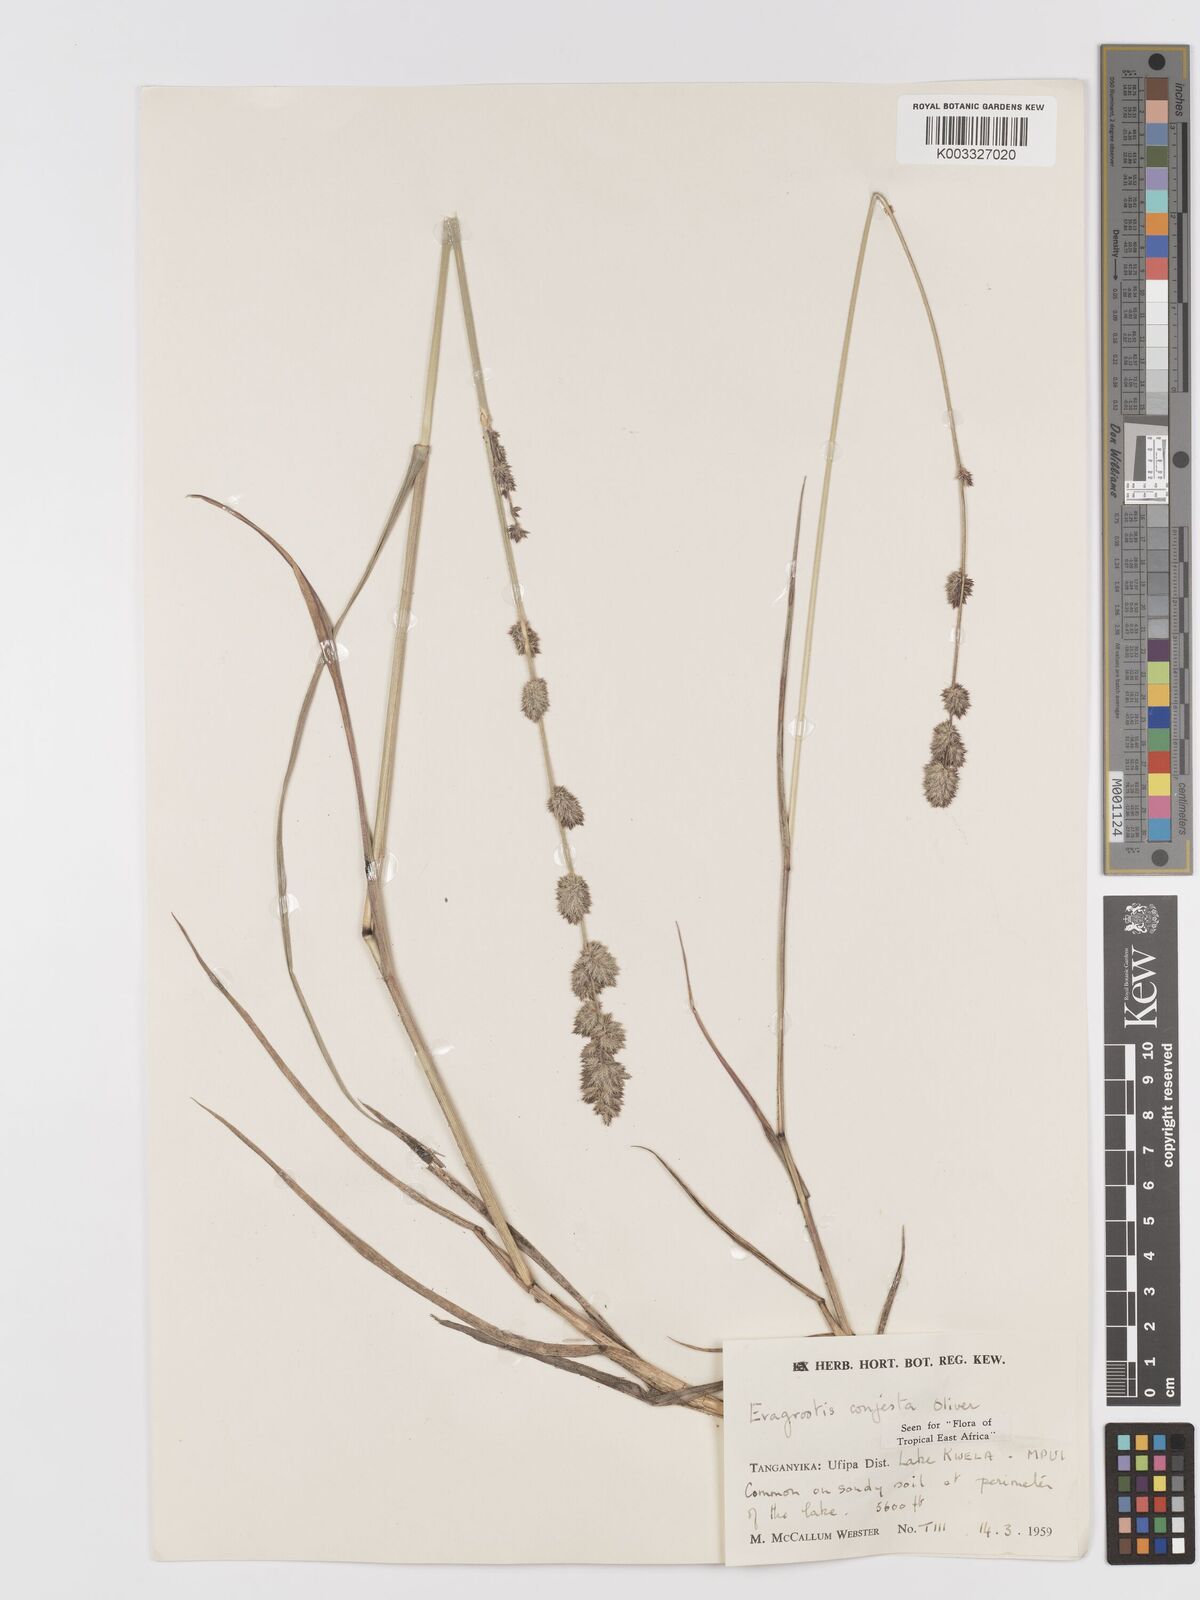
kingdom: Plantae
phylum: Tracheophyta
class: Liliopsida
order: Poales
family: Poaceae
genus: Eragrostis
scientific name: Eragrostis congesta
